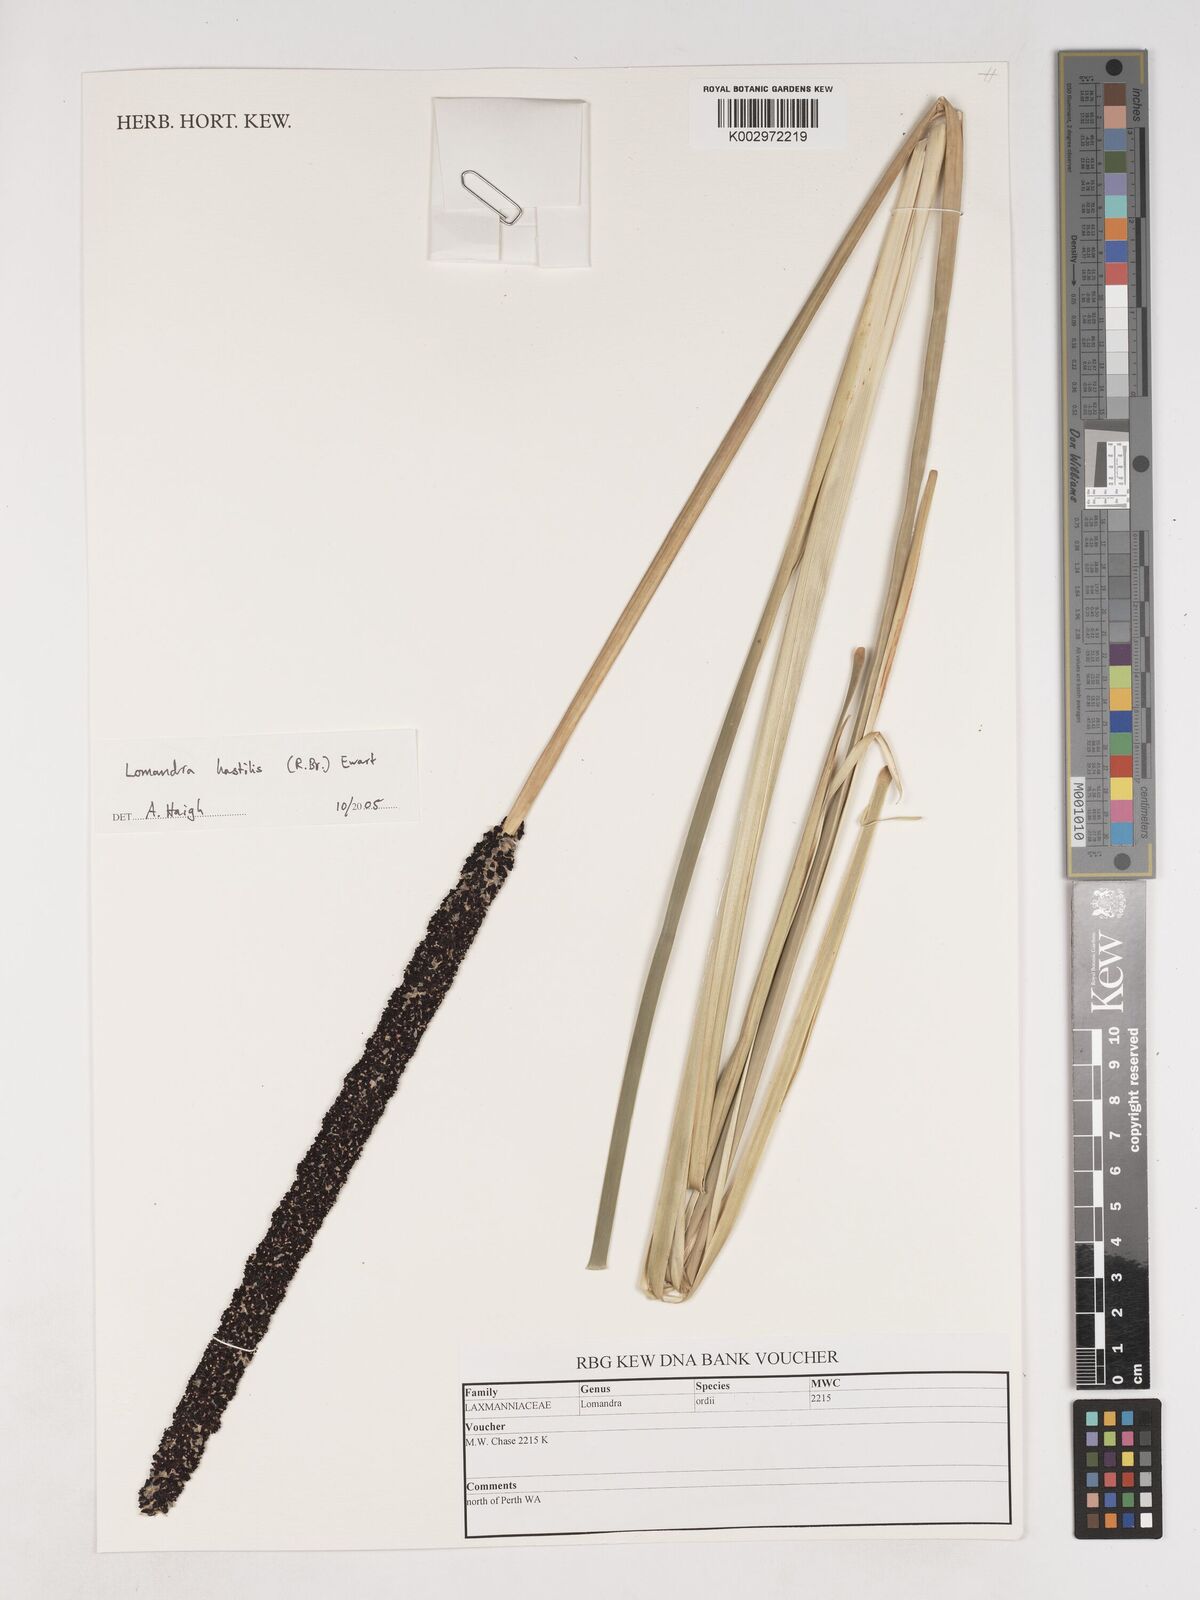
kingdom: Plantae
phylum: Tracheophyta
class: Liliopsida
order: Asparagales
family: Asparagaceae
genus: Lomandra
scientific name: Lomandra ordii
